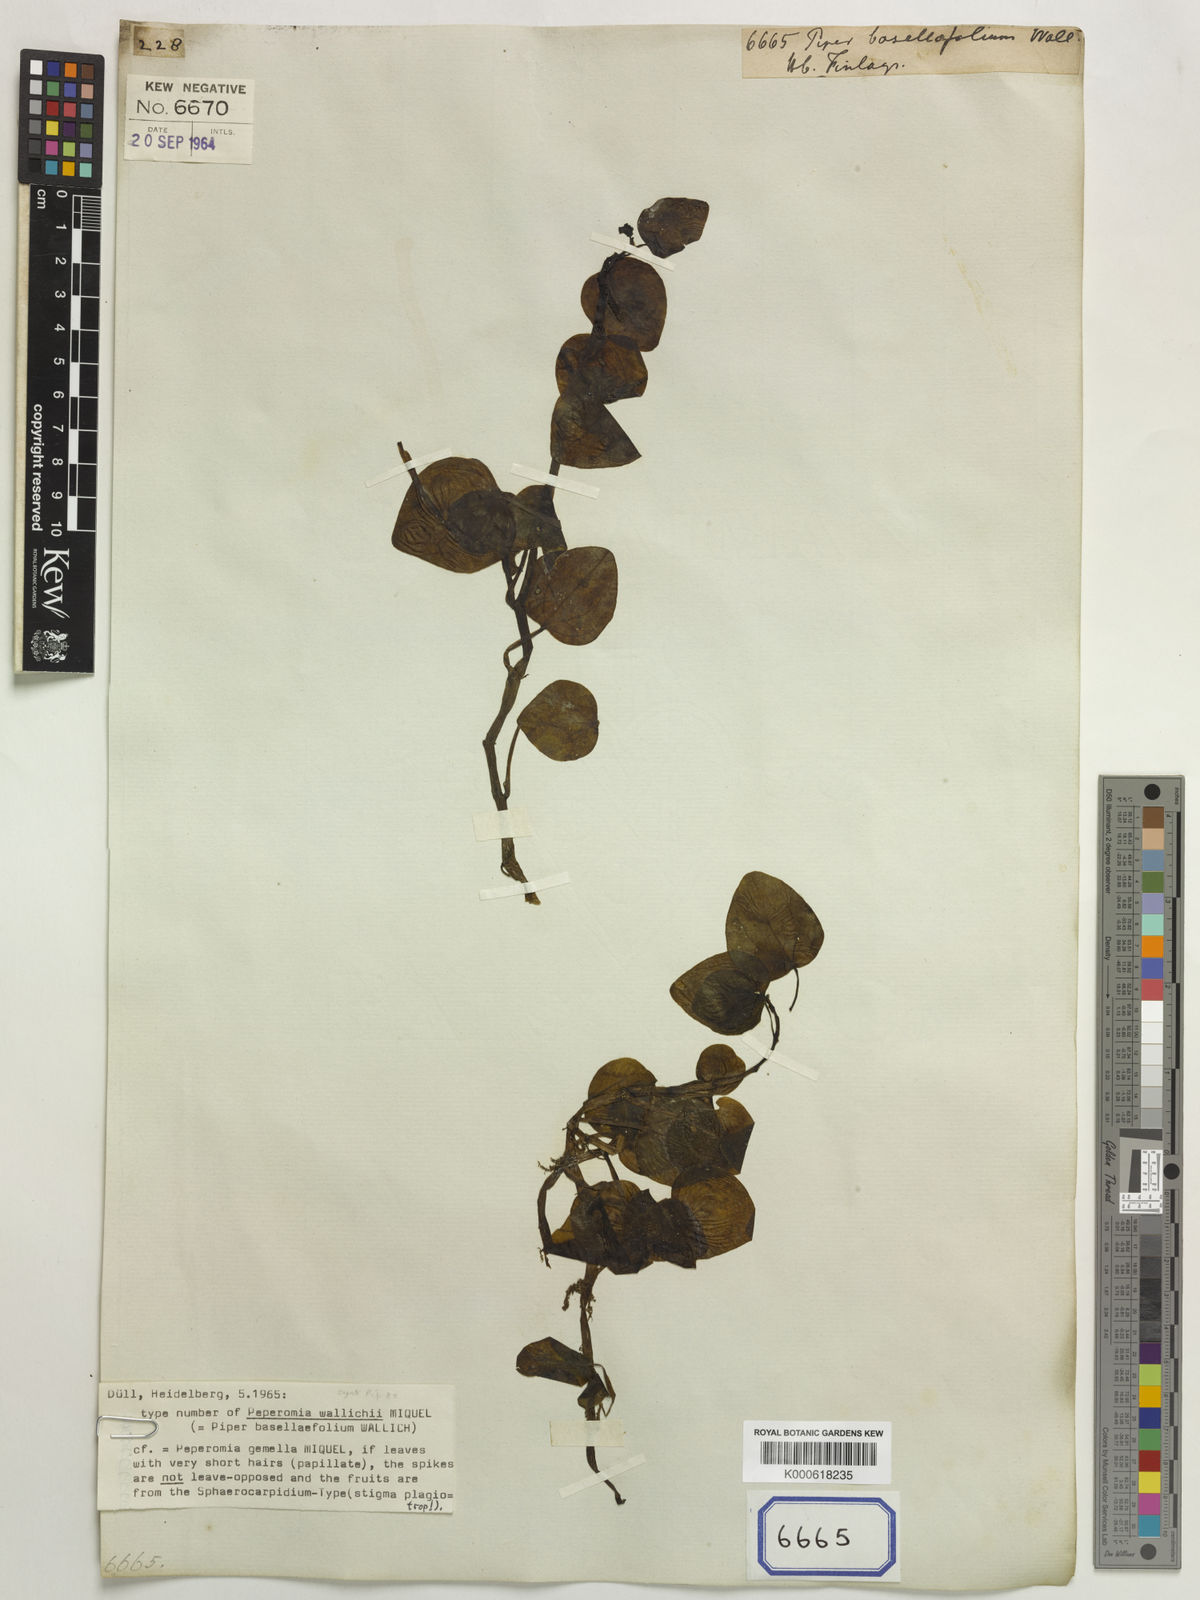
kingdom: Plantae
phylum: Tracheophyta
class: Magnoliopsida
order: Piperales
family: Piperaceae
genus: Peperomia
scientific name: Peperomia gemella
